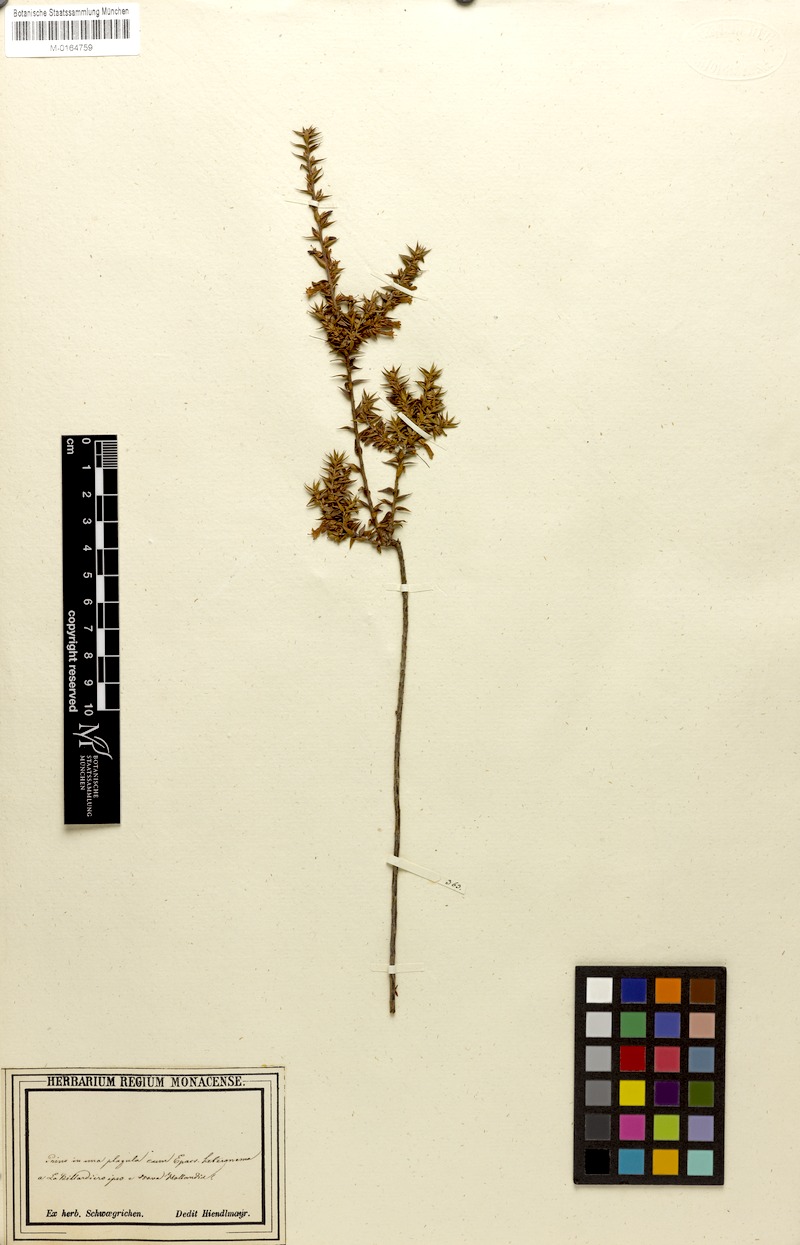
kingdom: Plantae
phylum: Tracheophyta
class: Magnoliopsida
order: Ericales
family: Ericaceae
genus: Epacris
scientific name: Epacris heteronema
